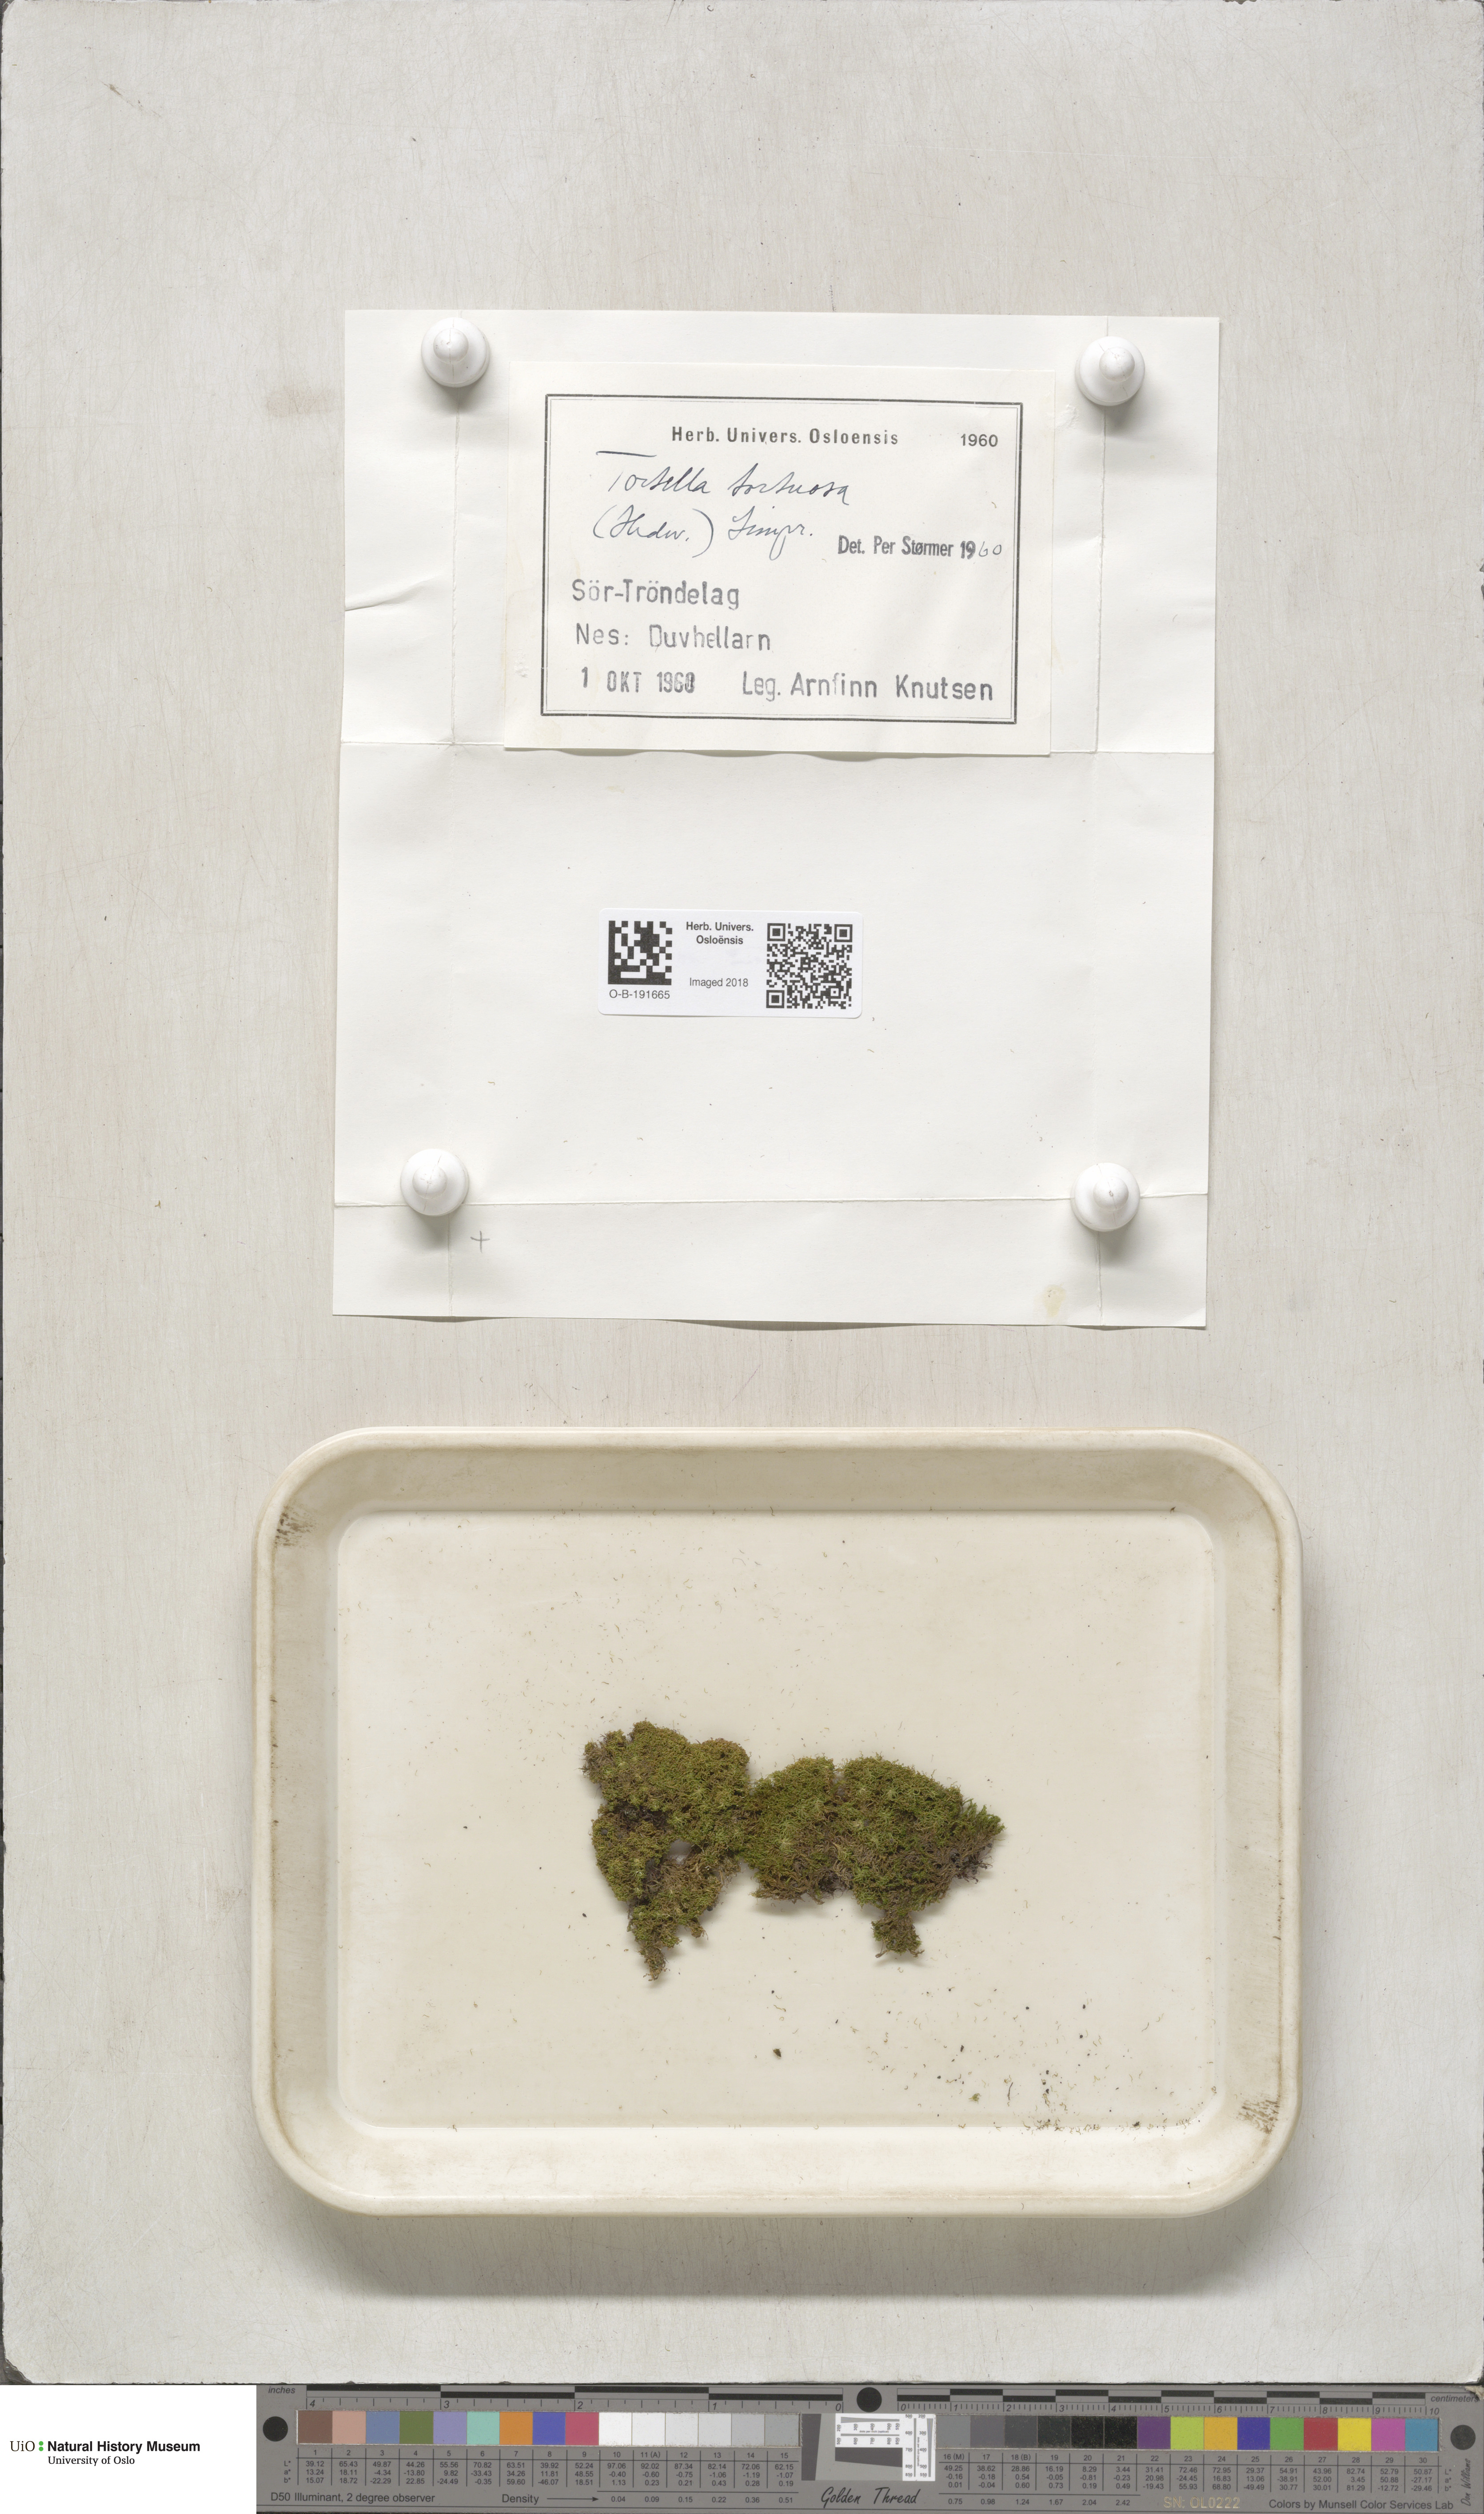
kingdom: Plantae
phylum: Bryophyta
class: Bryopsida
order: Pottiales
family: Pottiaceae
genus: Tortella
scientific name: Tortella tortuosa
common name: Frizzled crisp moss
